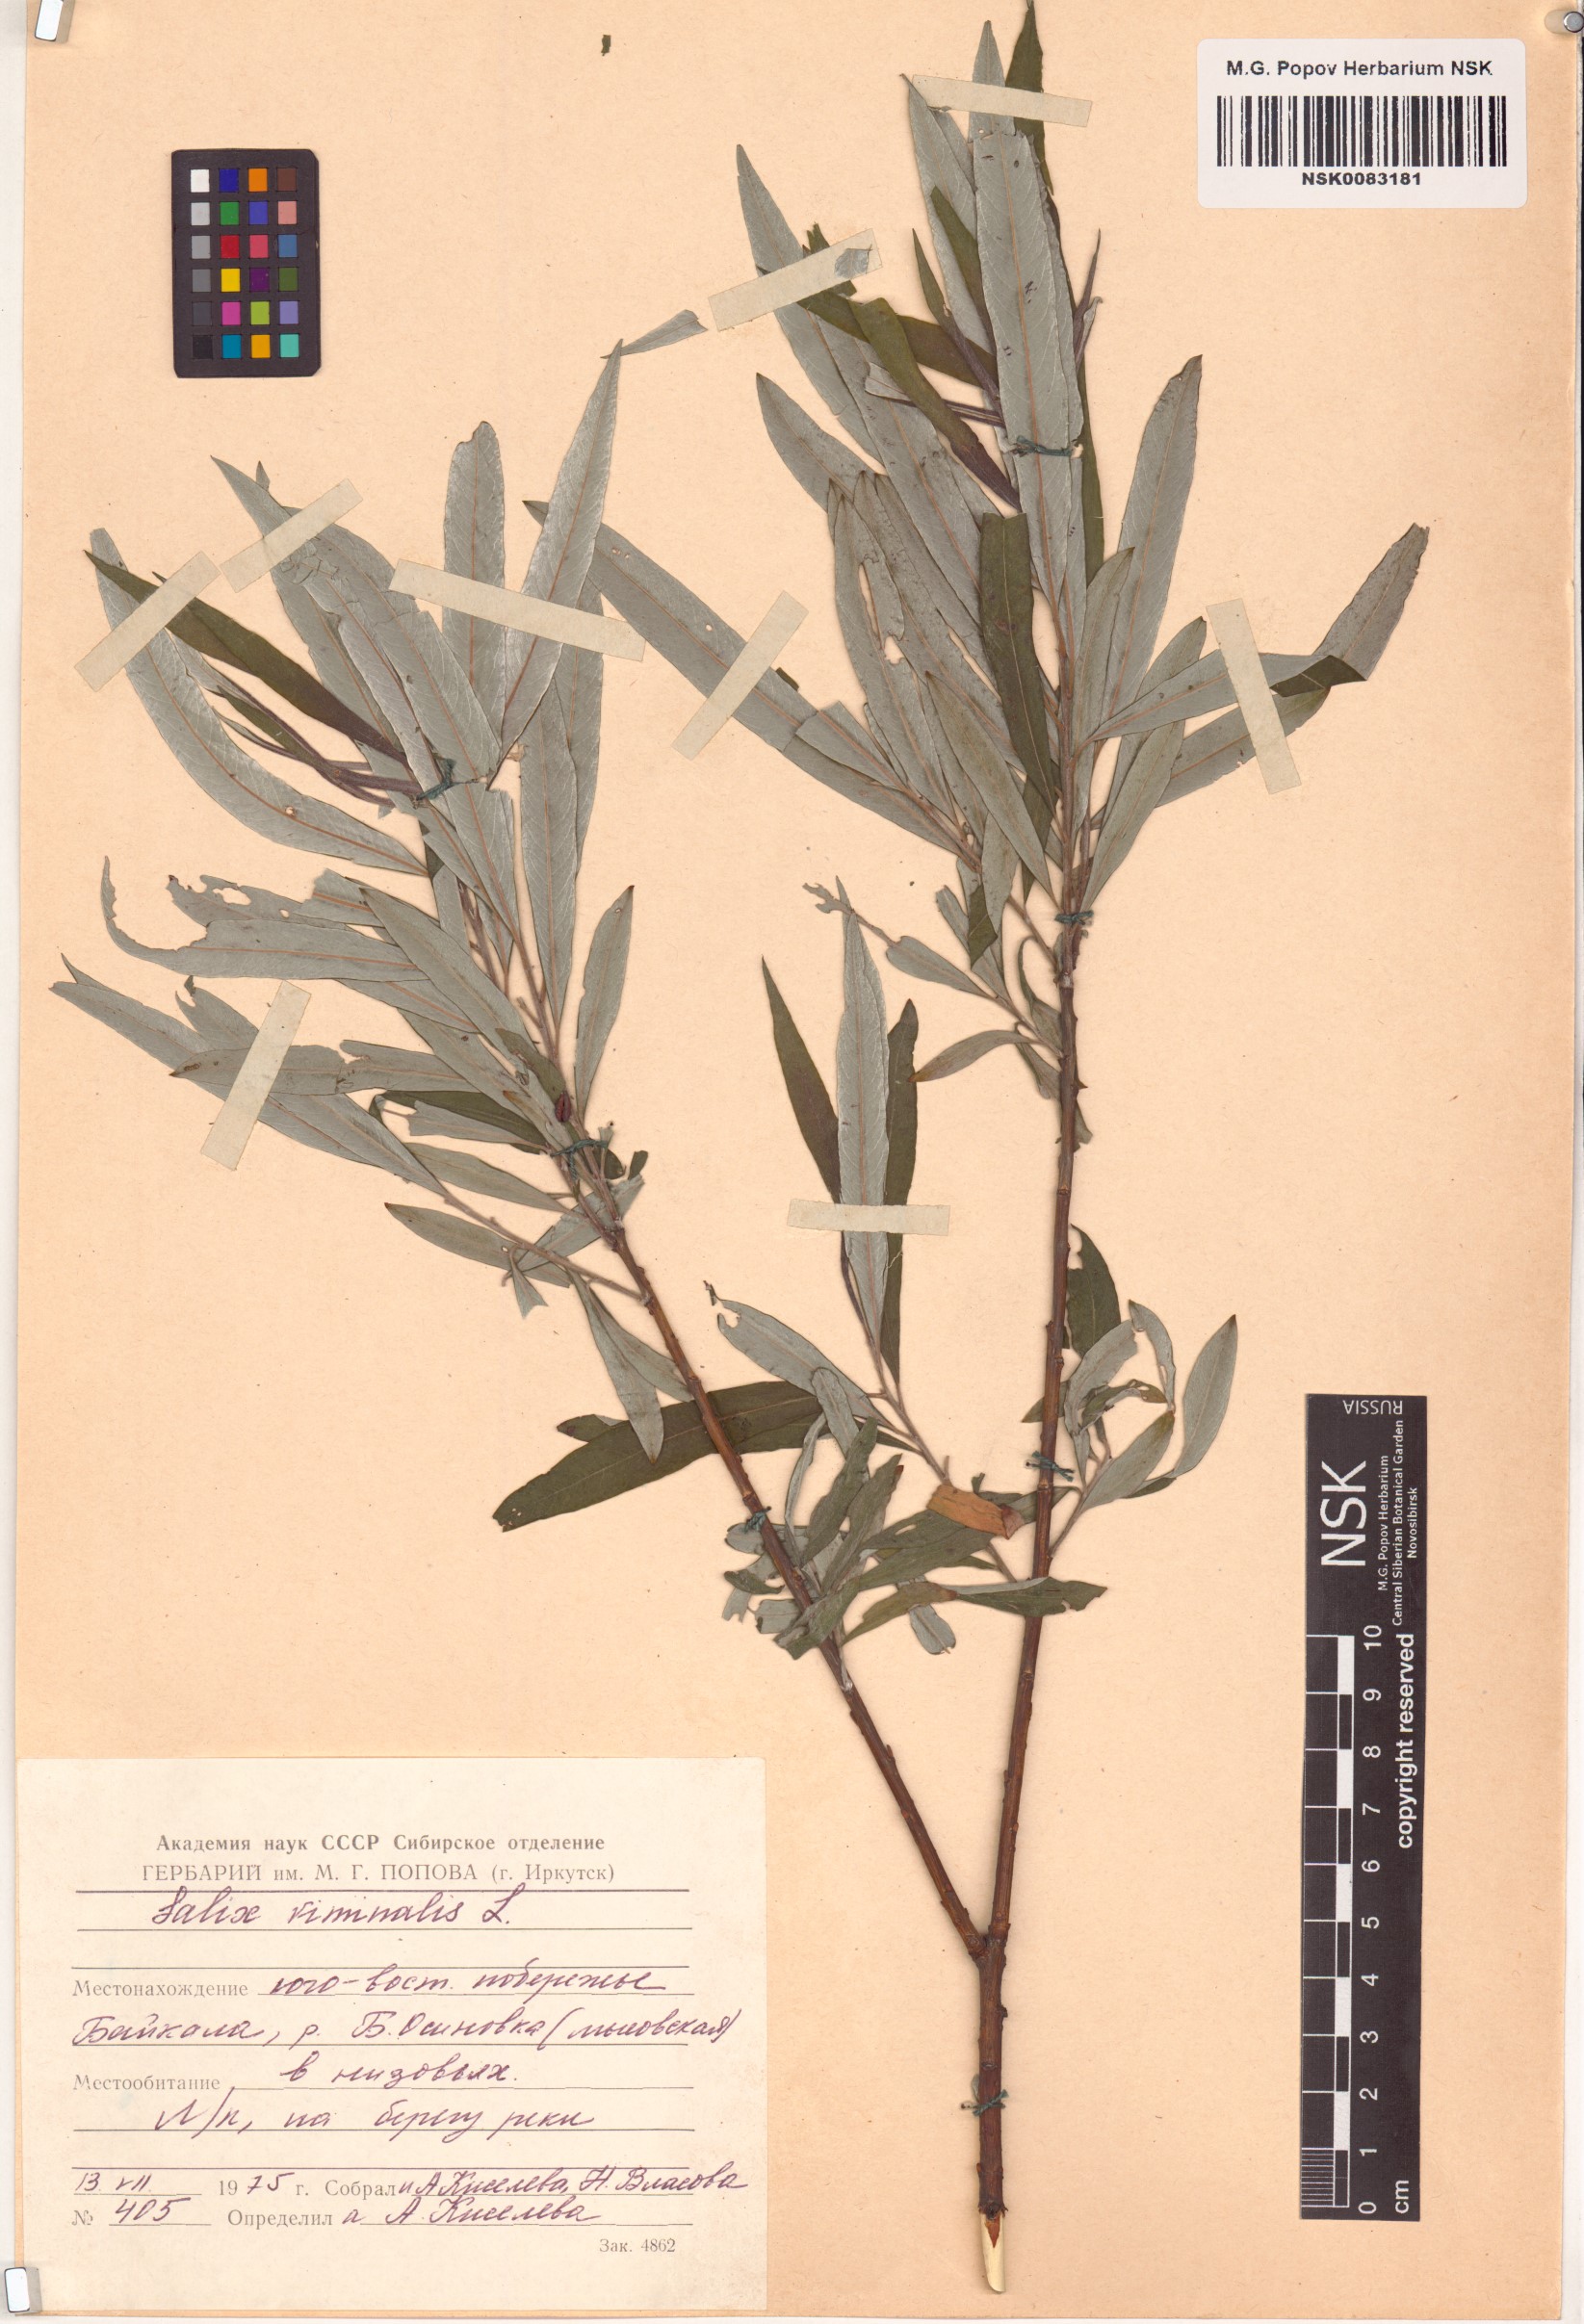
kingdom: Plantae
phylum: Tracheophyta
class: Magnoliopsida
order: Malpighiales
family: Salicaceae
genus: Salix
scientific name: Salix viminalis
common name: Osier
